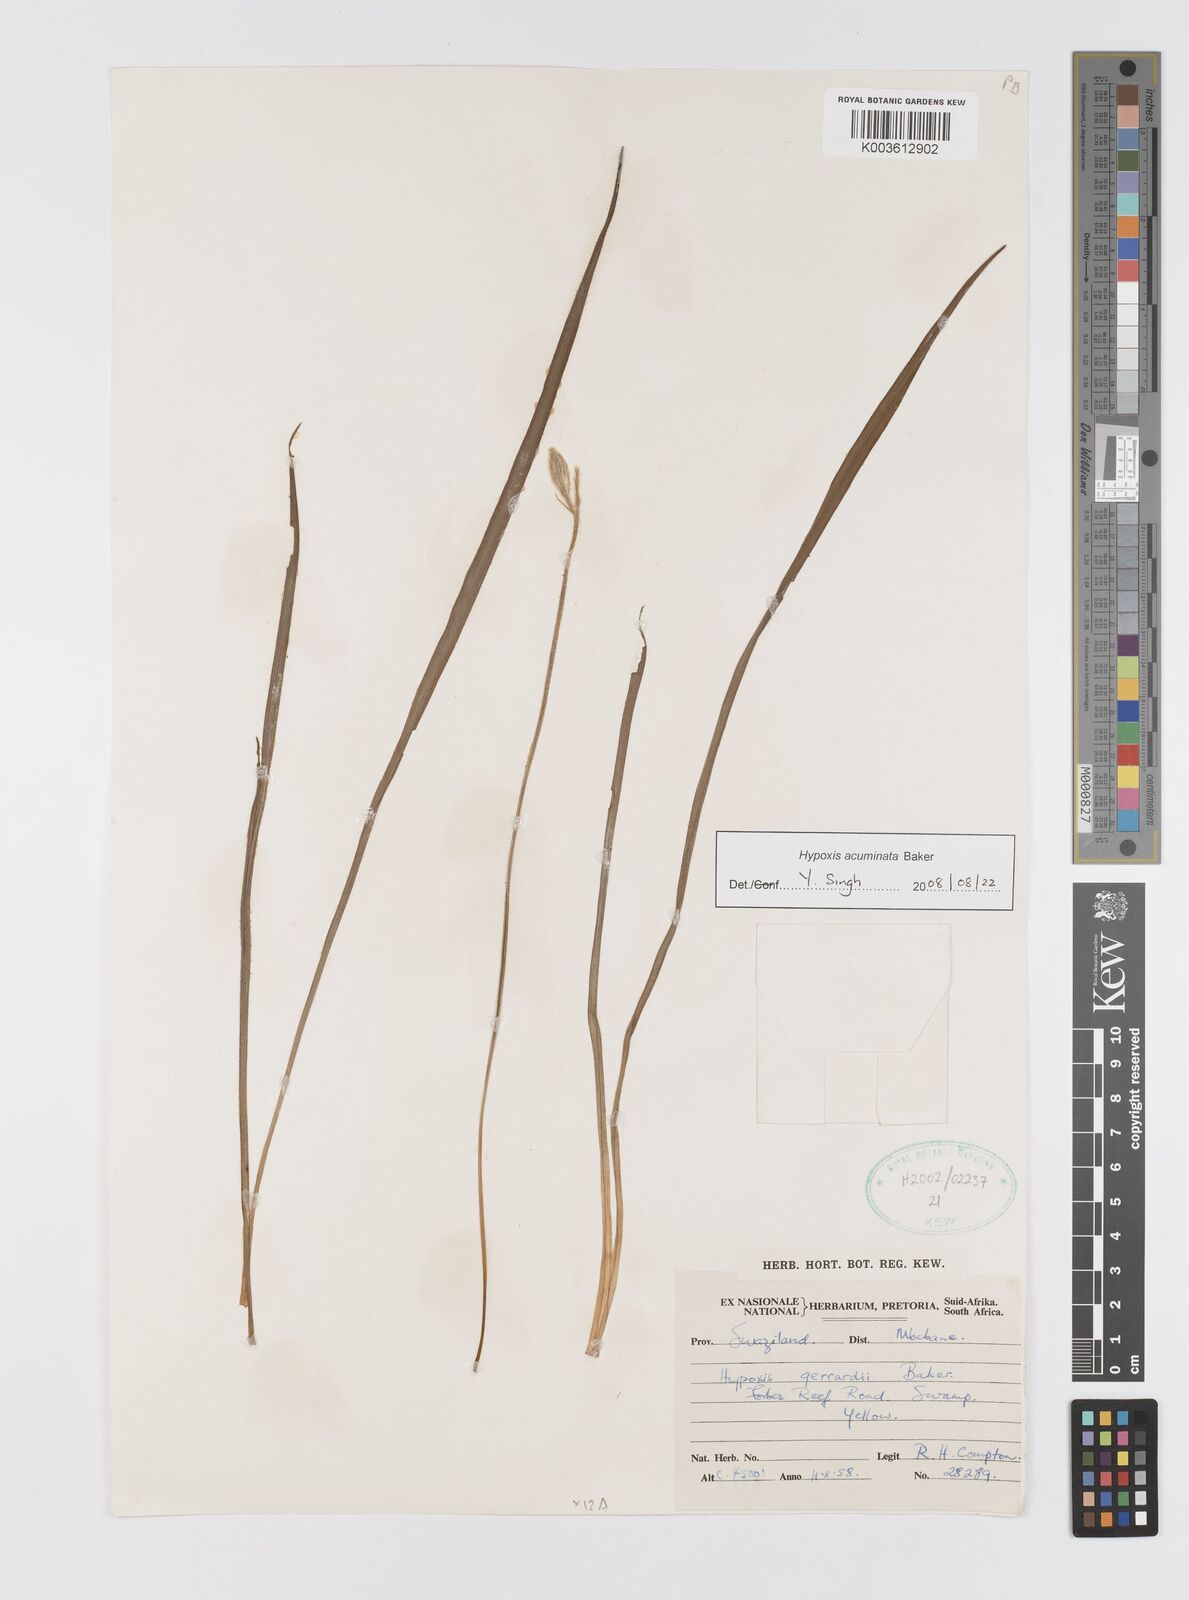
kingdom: Plantae
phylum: Tracheophyta
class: Liliopsida
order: Asparagales
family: Hypoxidaceae
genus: Hypoxis
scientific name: Hypoxis acuminata
